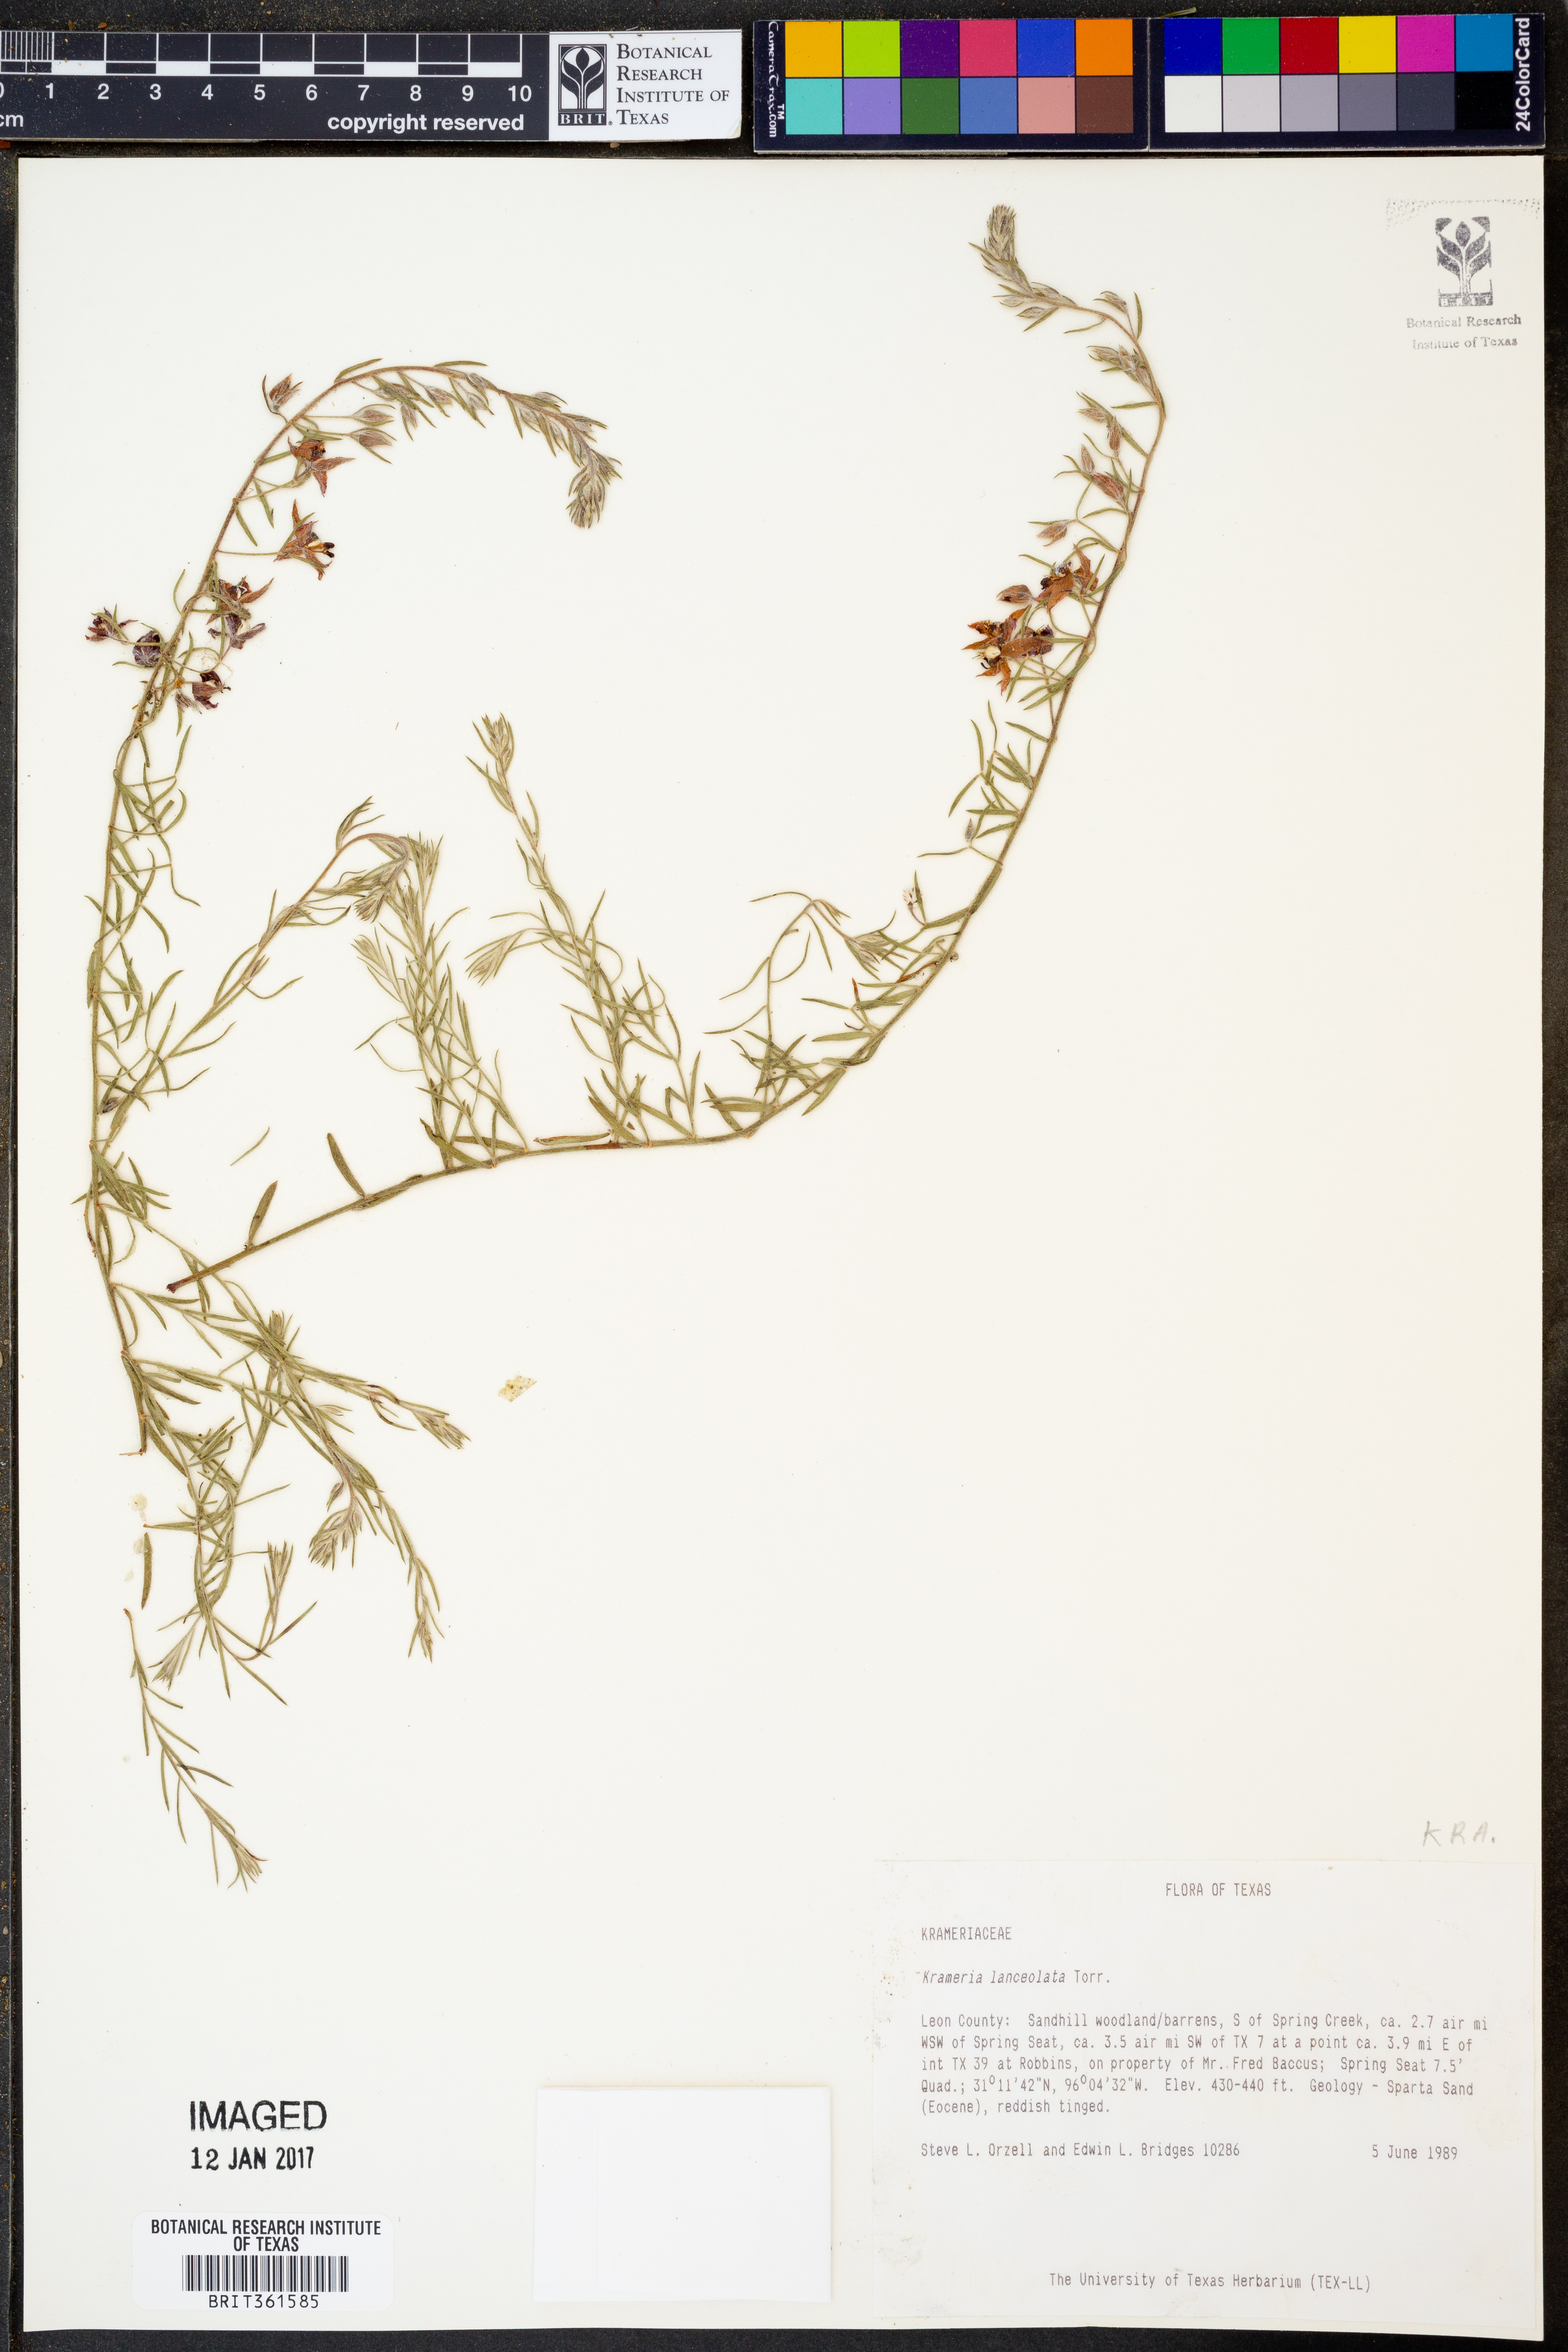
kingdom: Plantae
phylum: Tracheophyta
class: Magnoliopsida
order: Zygophyllales
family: Krameriaceae
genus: Krameria
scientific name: Krameria lanceolata
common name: Ratany
